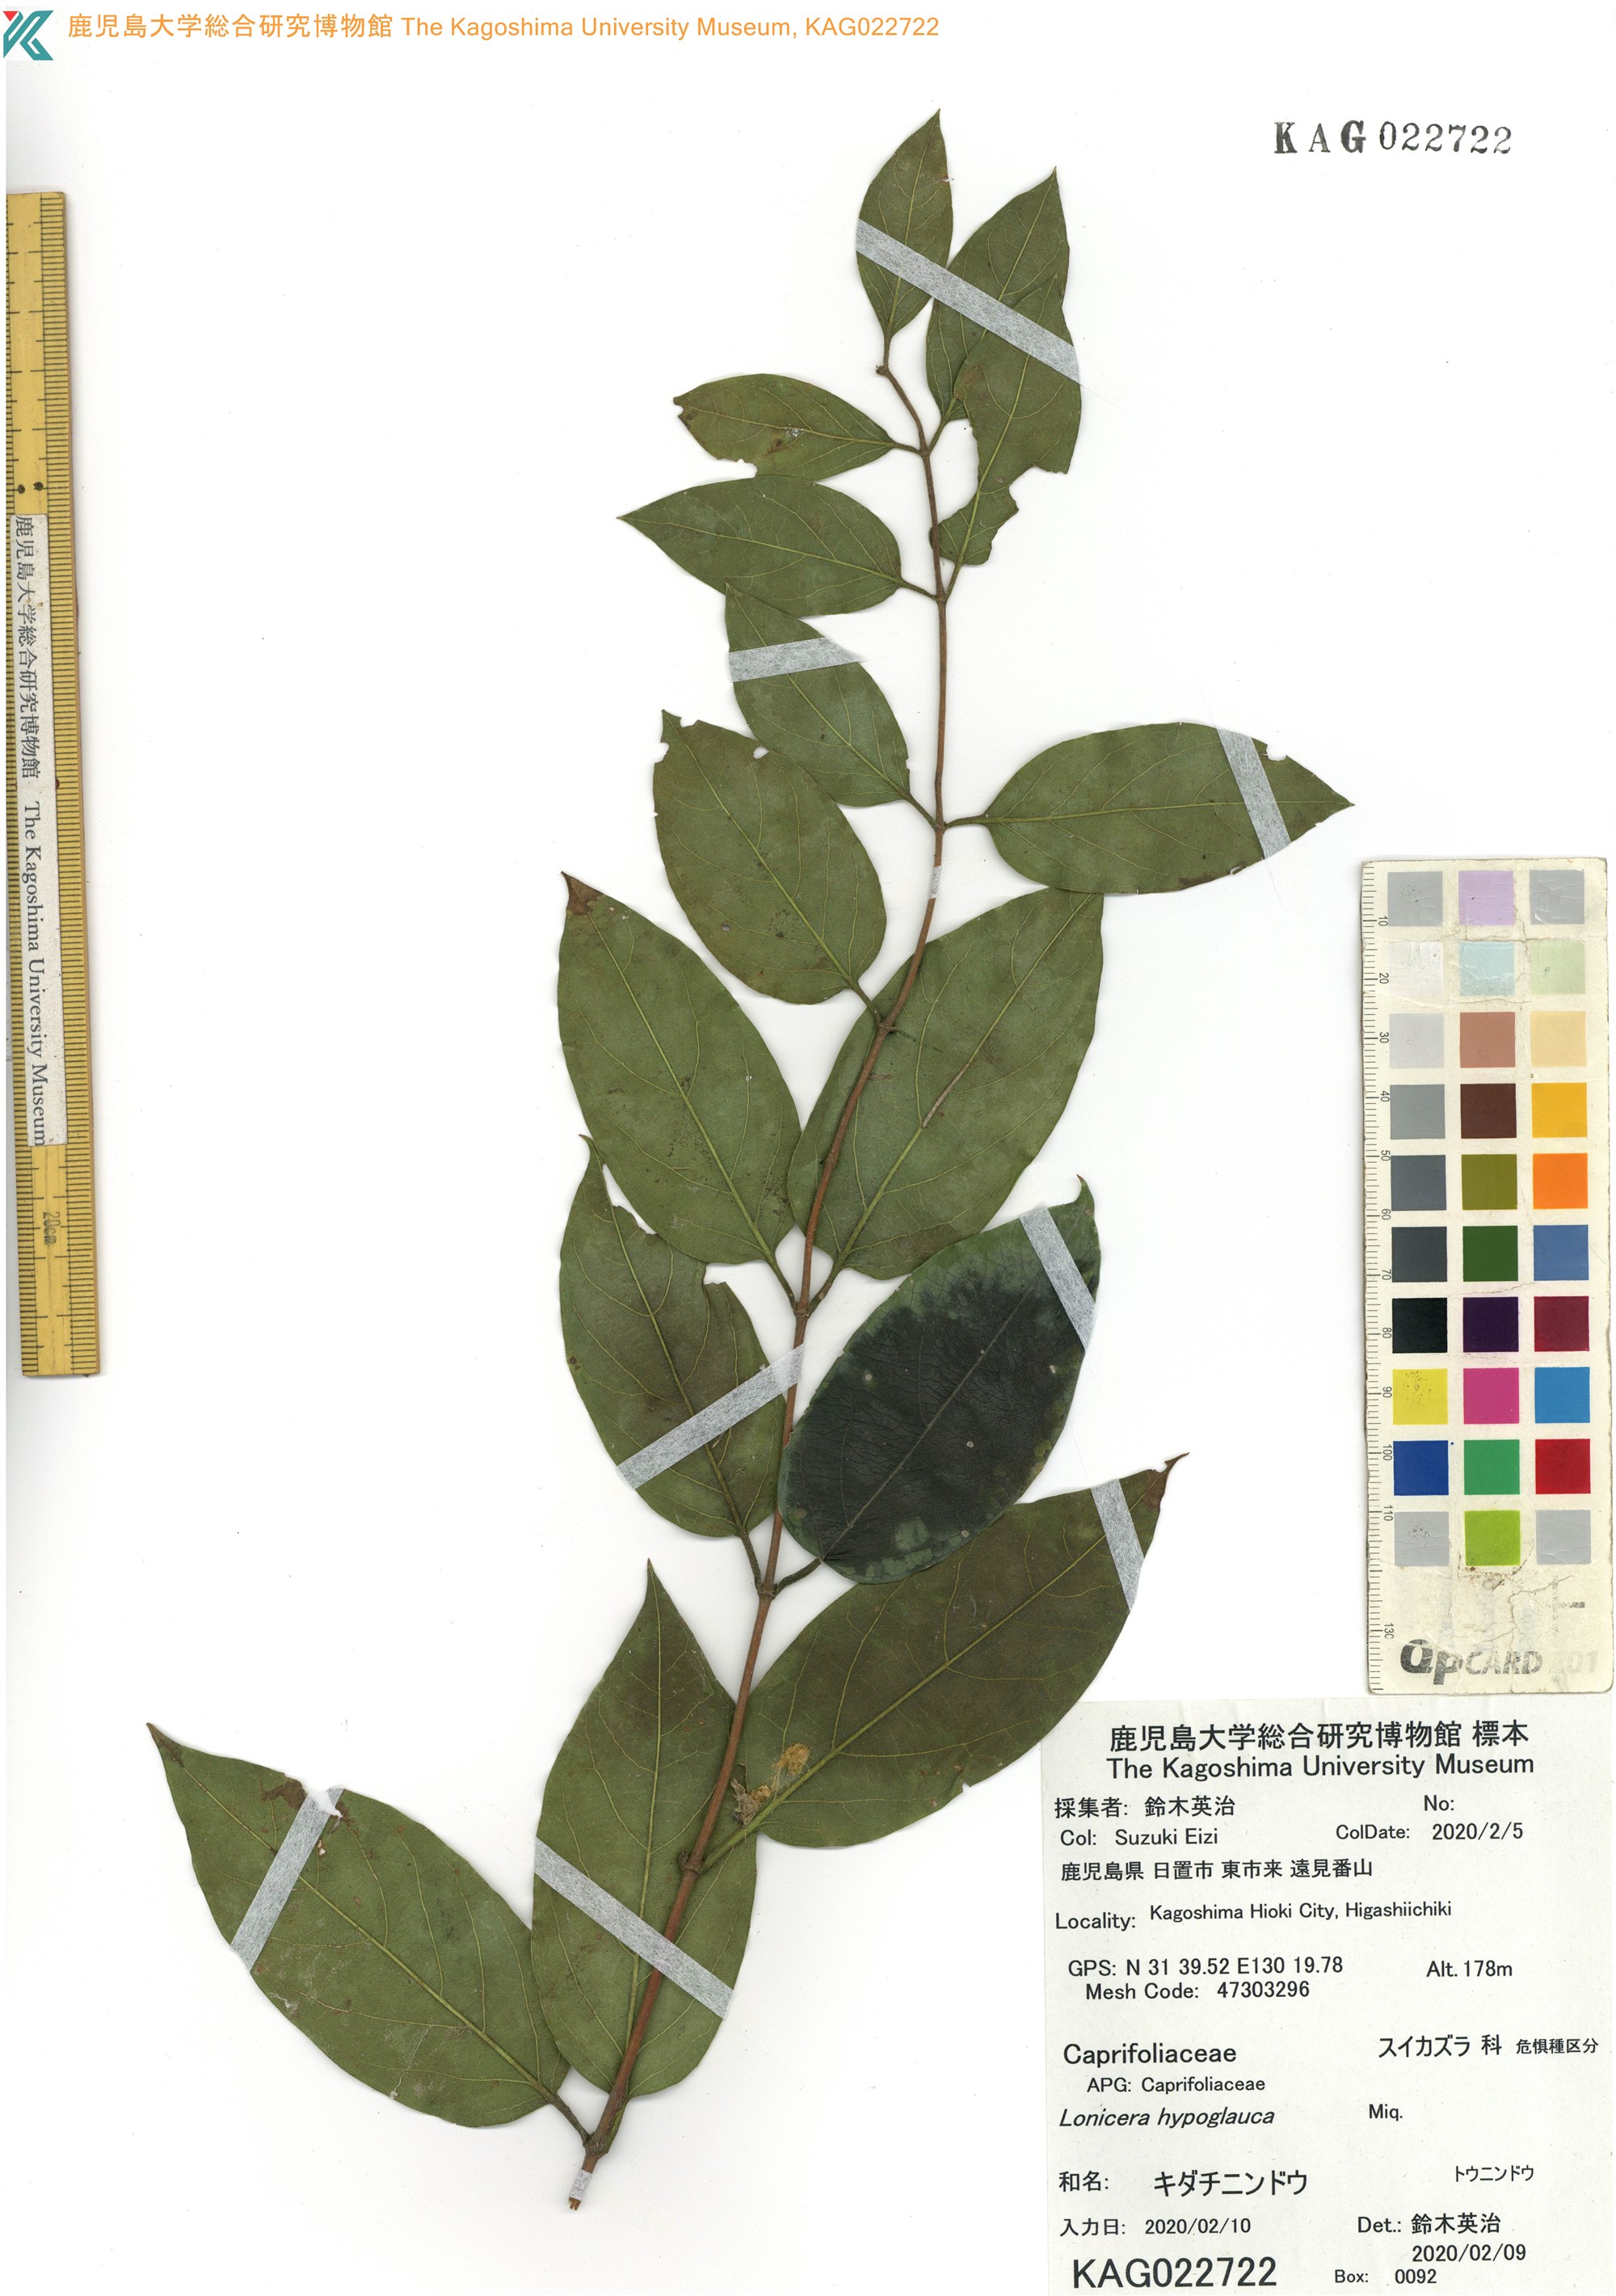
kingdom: Plantae
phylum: Tracheophyta
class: Magnoliopsida
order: Dipsacales
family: Caprifoliaceae
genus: Lonicera
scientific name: Lonicera hypoglauca
